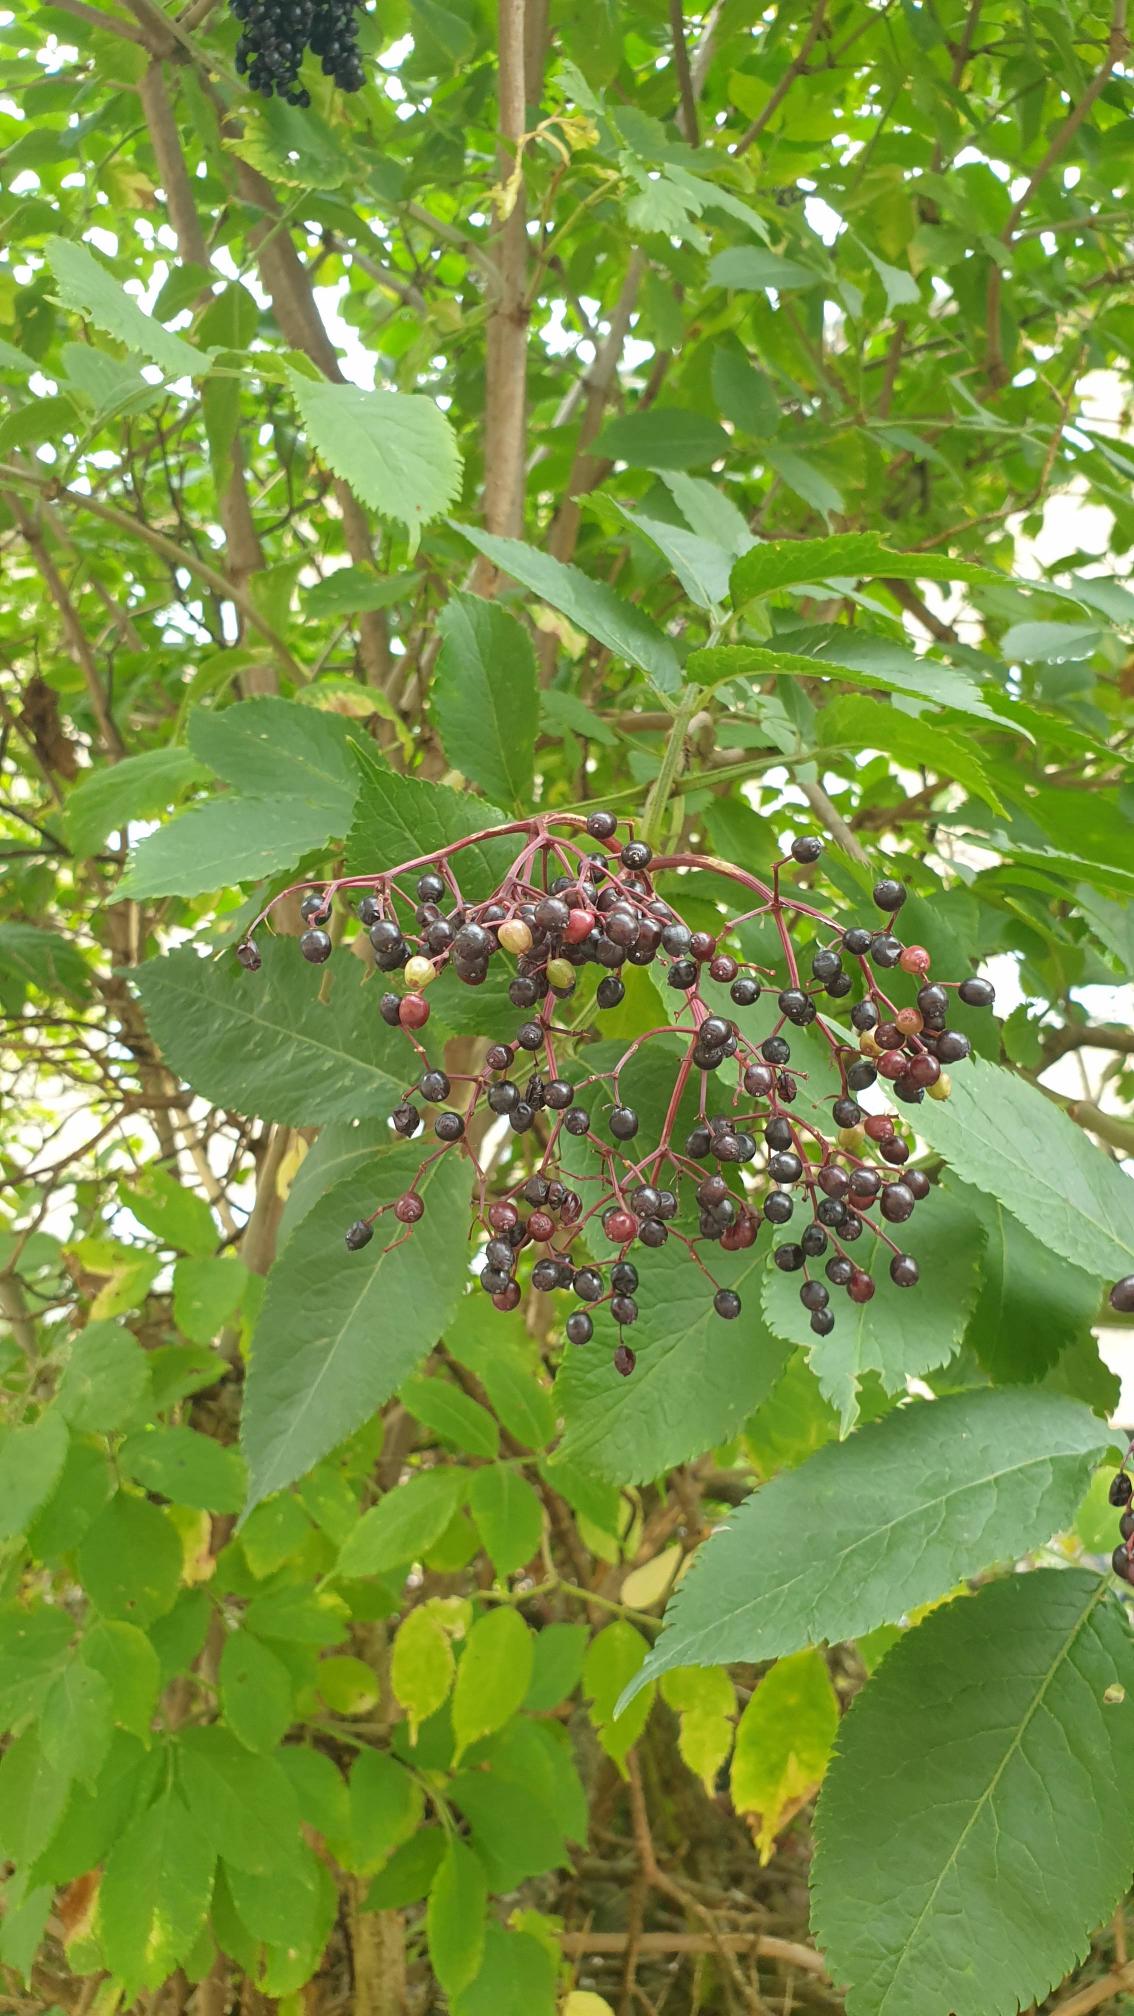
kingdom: Plantae
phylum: Tracheophyta
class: Magnoliopsida
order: Dipsacales
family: Viburnaceae
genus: Sambucus
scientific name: Sambucus nigra
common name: Almindelig hyld
